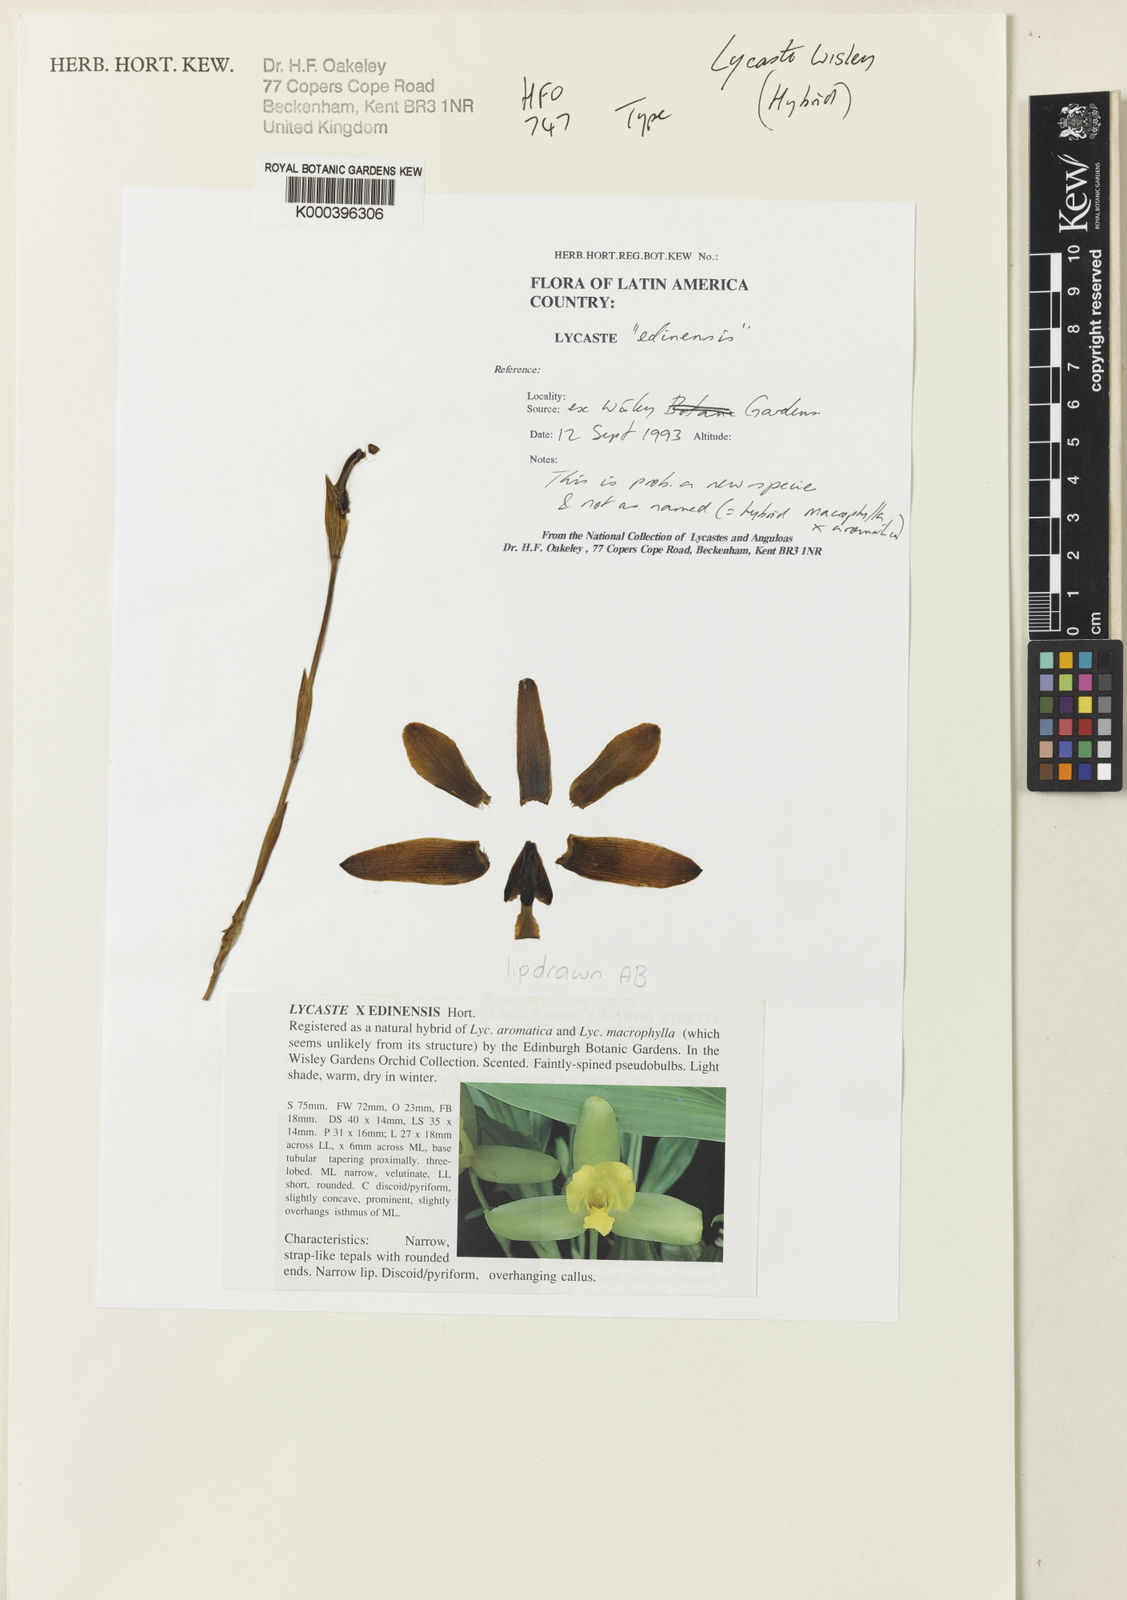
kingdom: Plantae
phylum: Tracheophyta
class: Liliopsida
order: Asparagales
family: Orchidaceae
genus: Lycaste
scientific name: Lycaste
